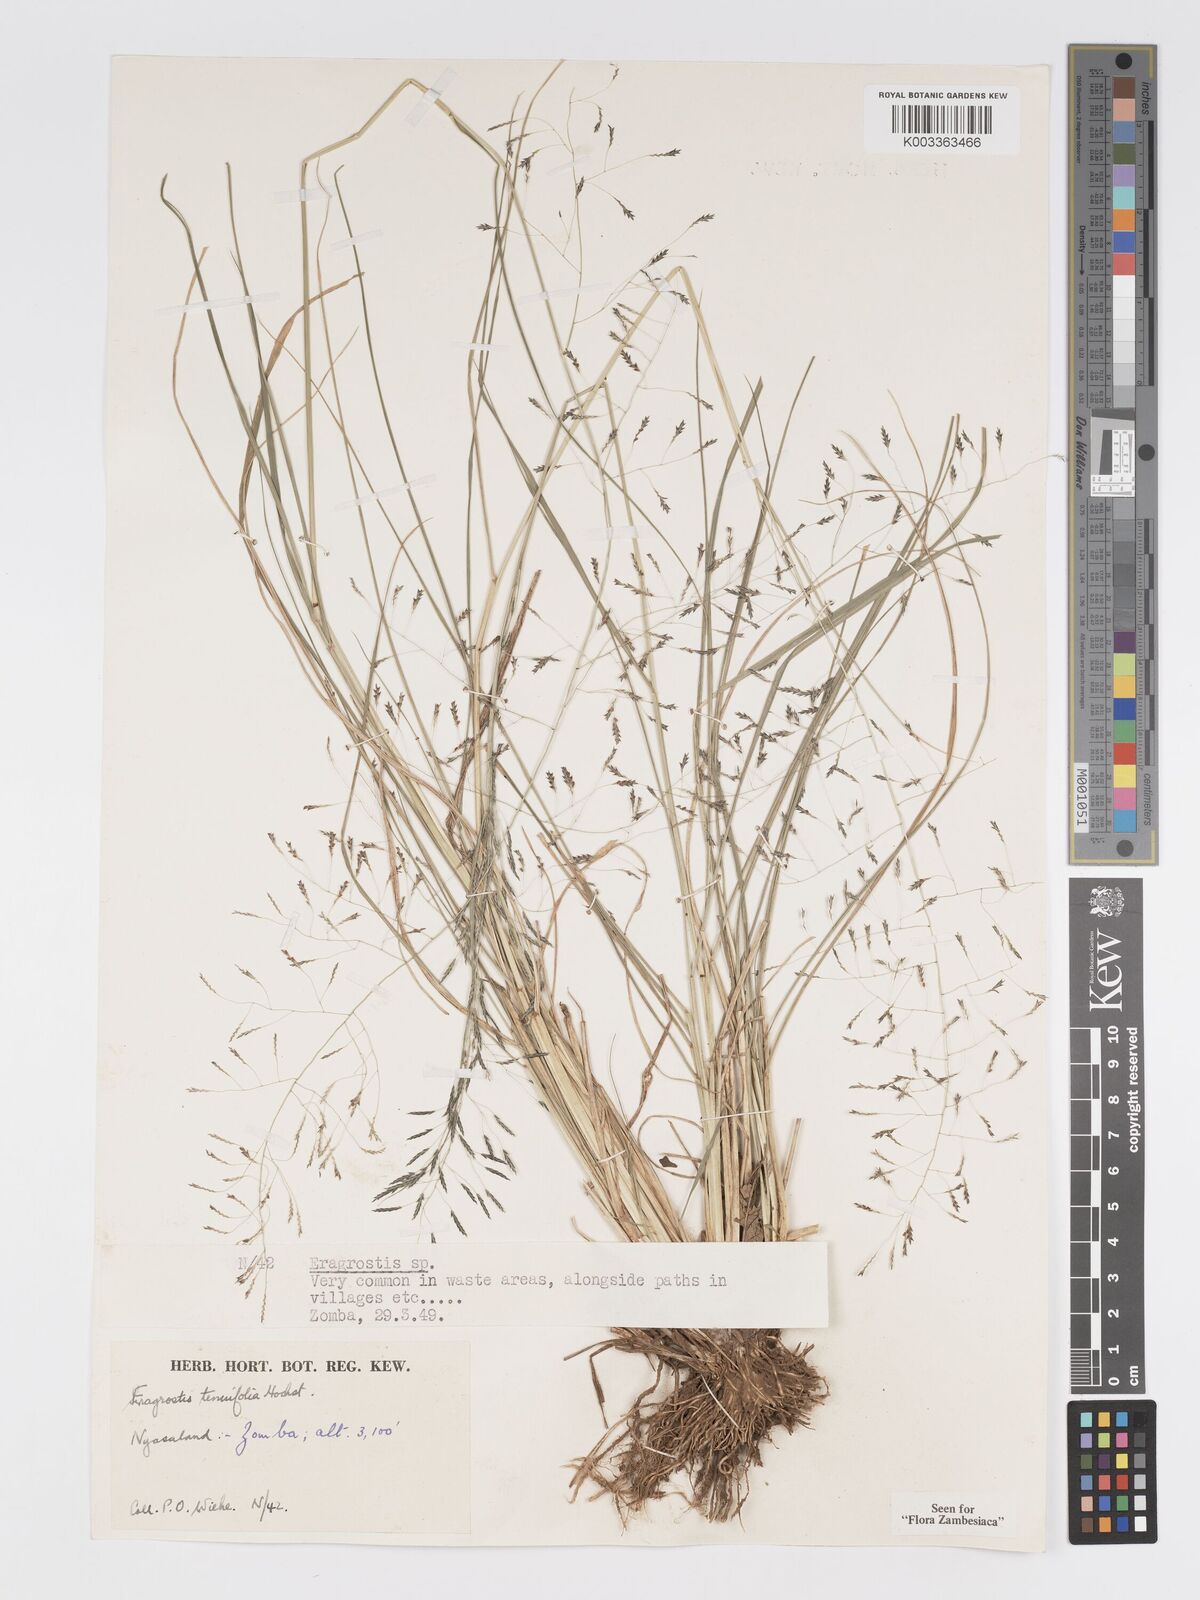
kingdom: Plantae
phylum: Tracheophyta
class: Liliopsida
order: Poales
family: Poaceae
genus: Eragrostis
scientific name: Eragrostis tenuifolia
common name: Elastic grass
